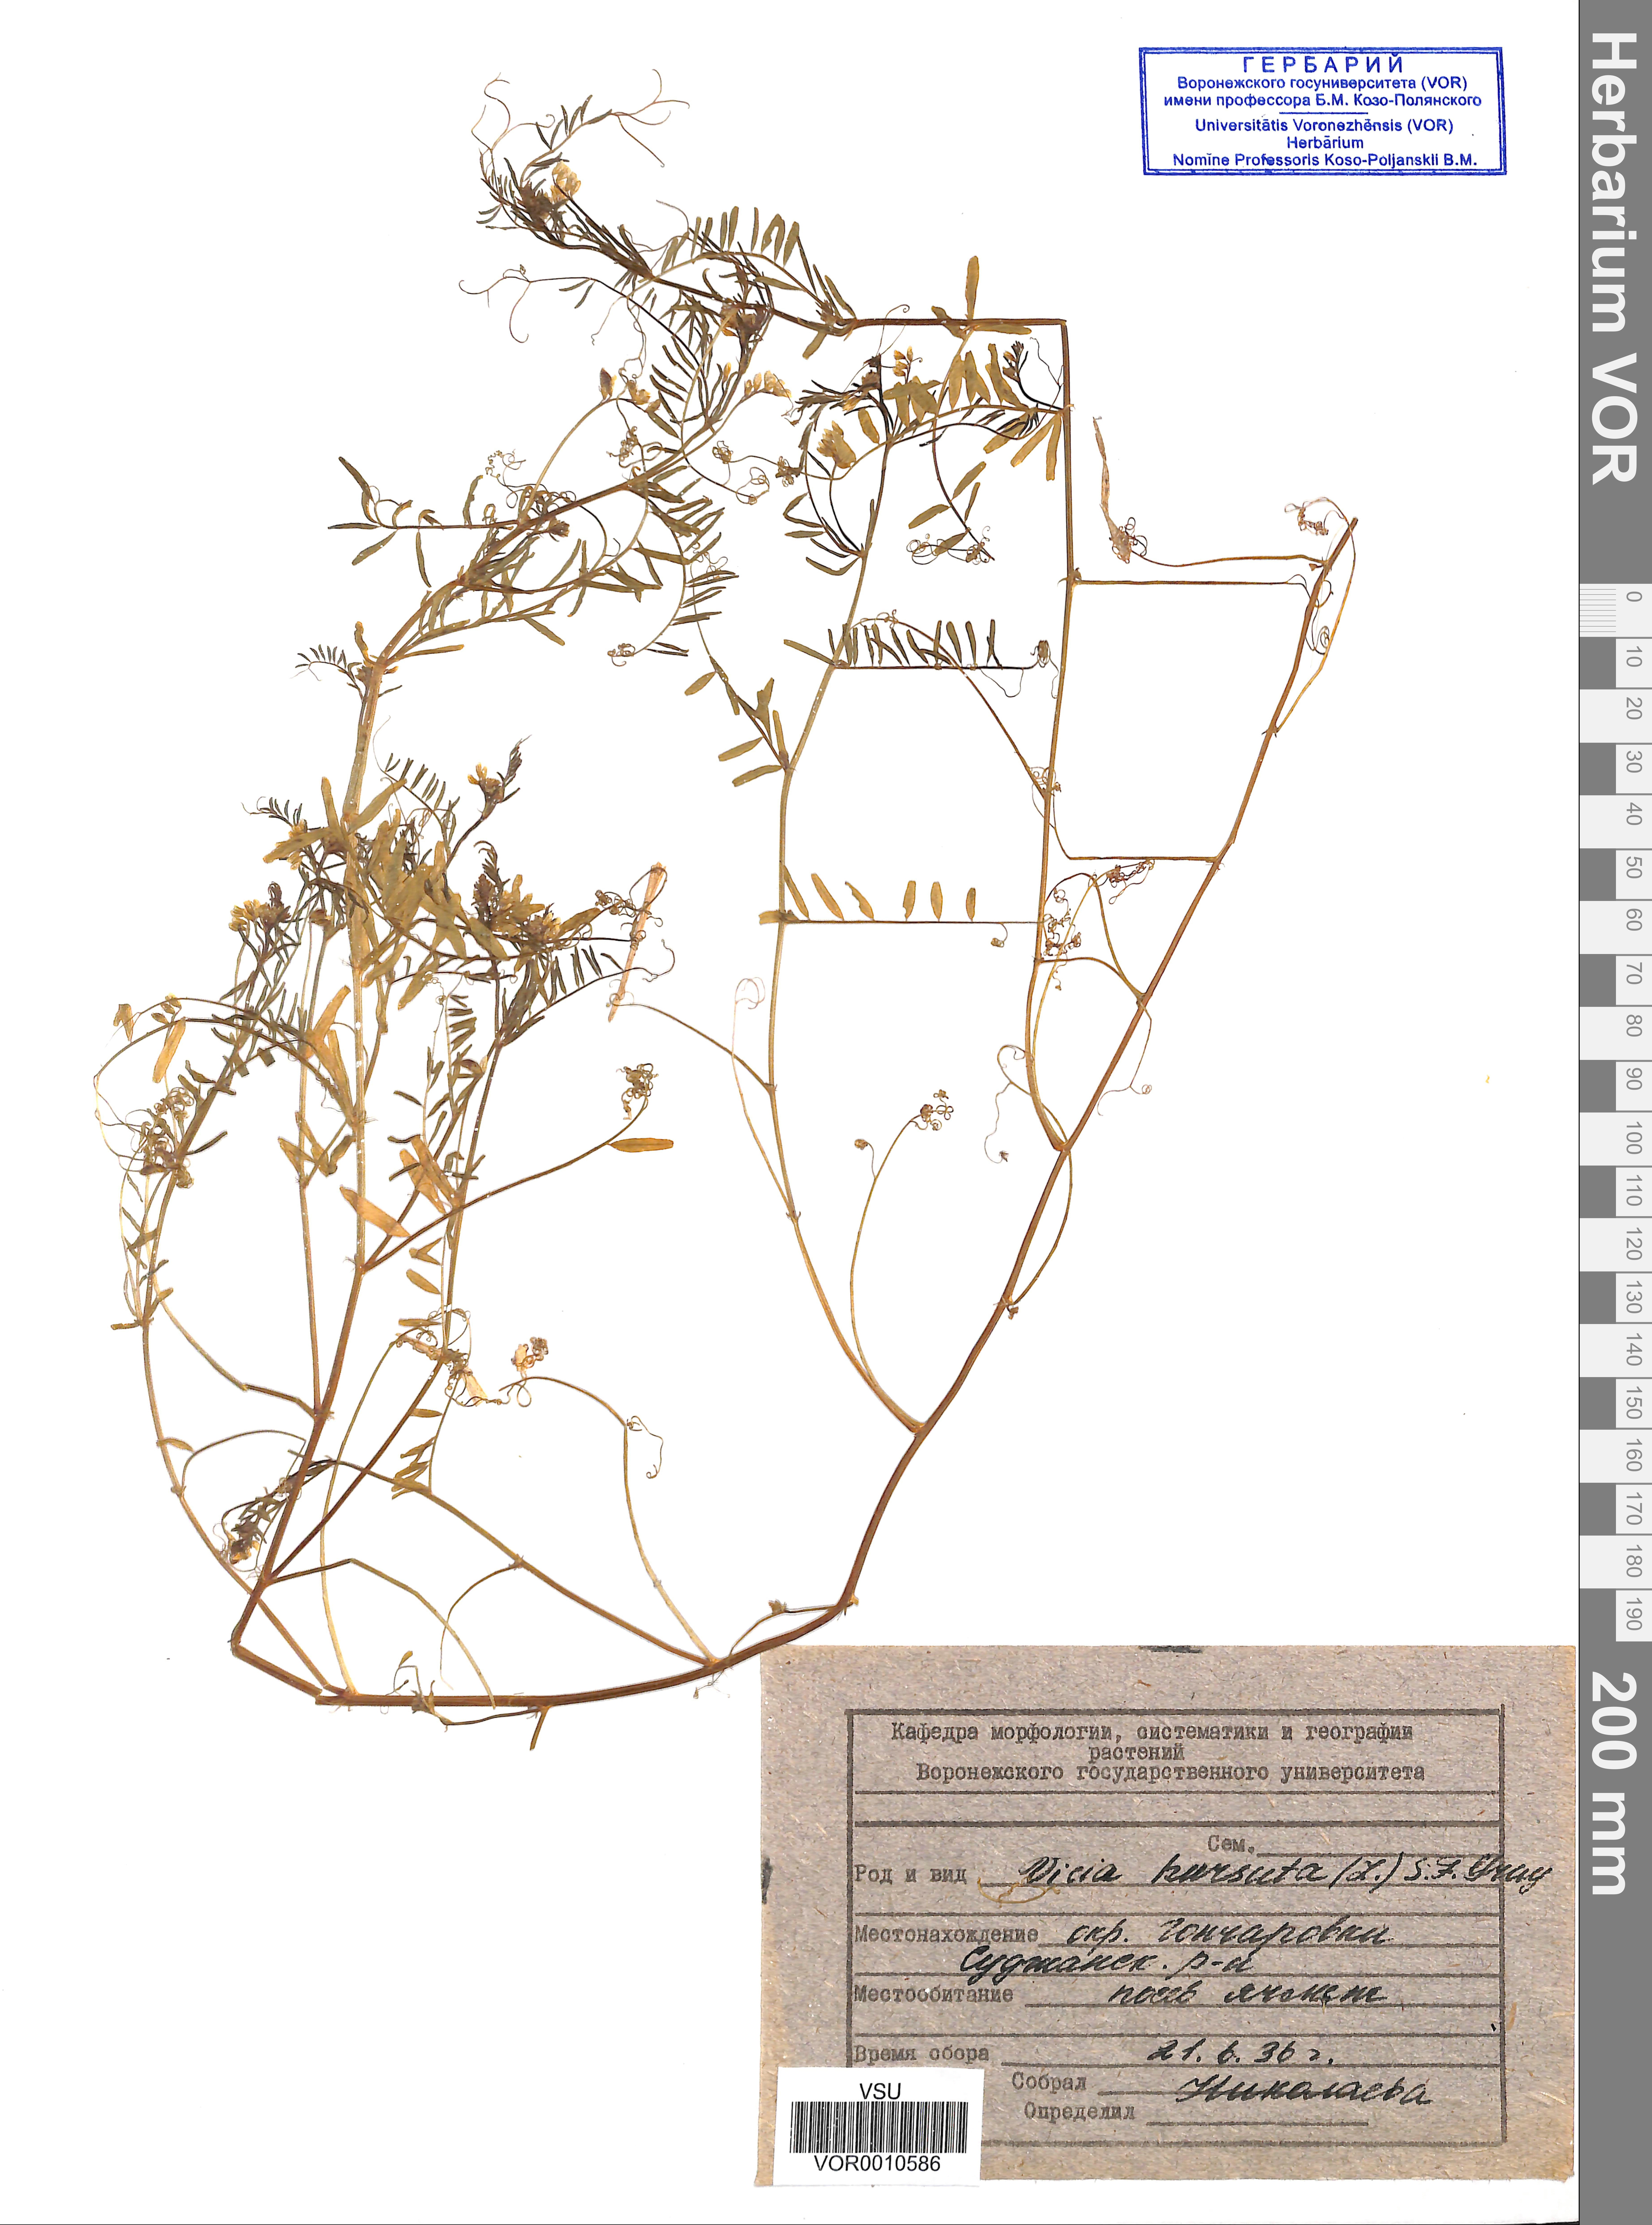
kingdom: Plantae
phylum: Tracheophyta
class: Magnoliopsida
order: Fabales
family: Fabaceae
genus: Vicia
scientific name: Vicia hirsuta
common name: Tiny vetch
